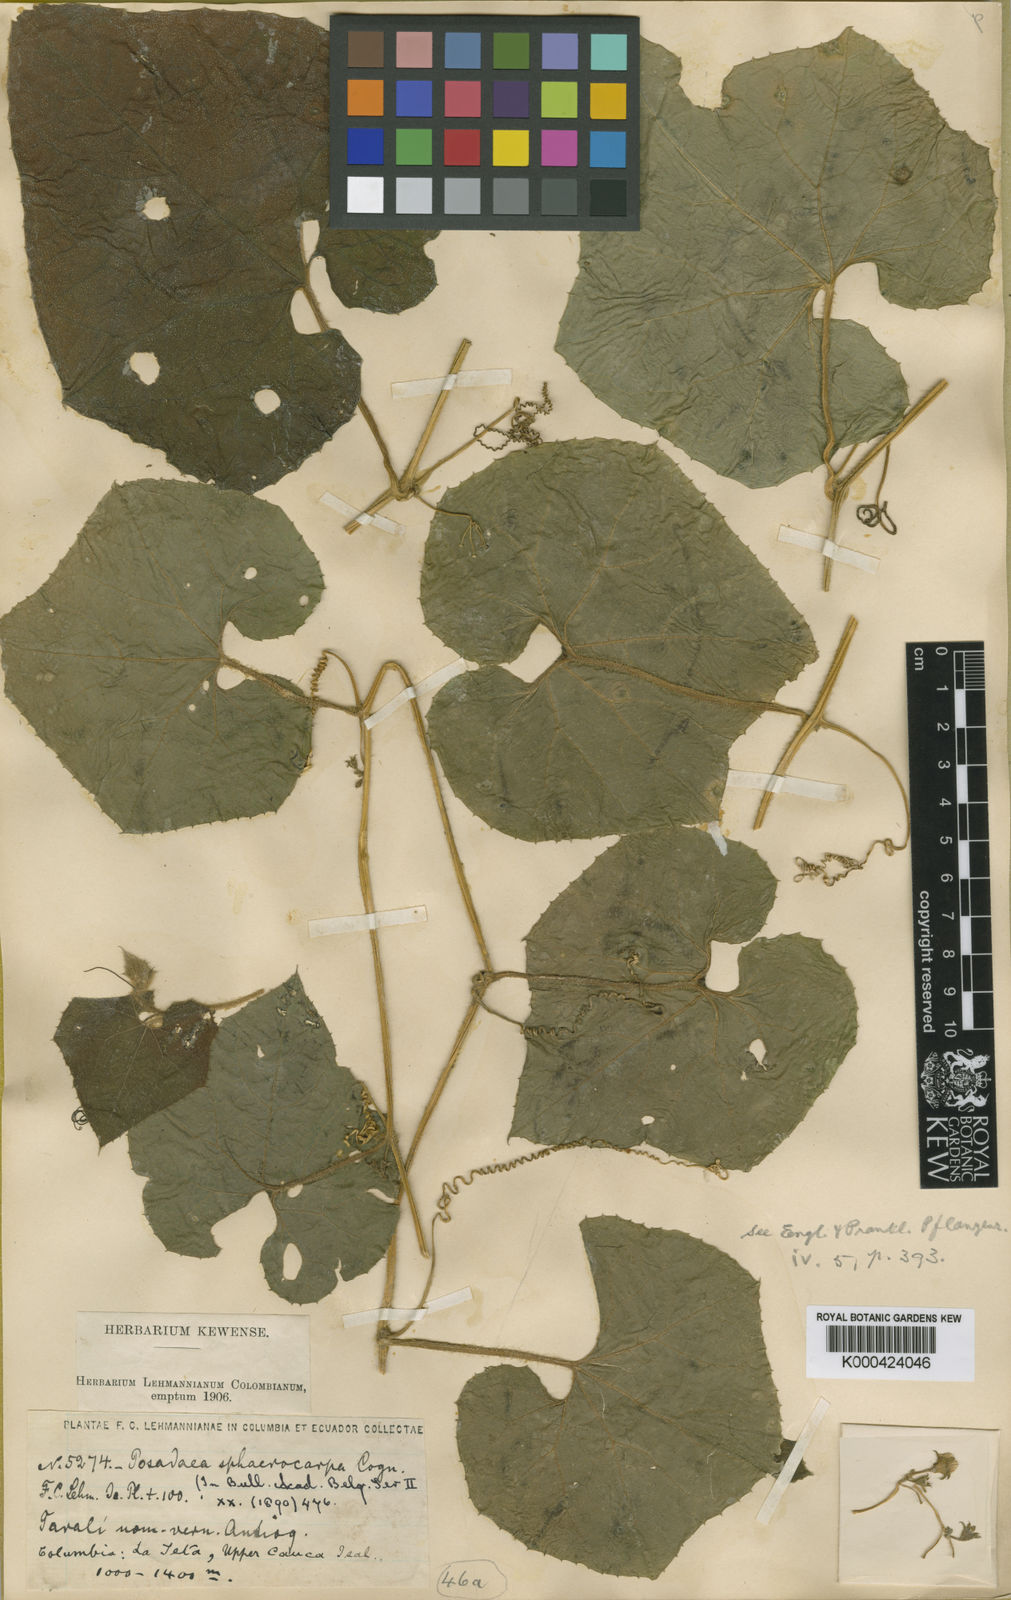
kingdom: Plantae
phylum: Tracheophyta
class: Magnoliopsida
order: Cucurbitales
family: Cucurbitaceae
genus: Melothria
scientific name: Melothria sphaerocarpa
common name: Egusi-itoo
